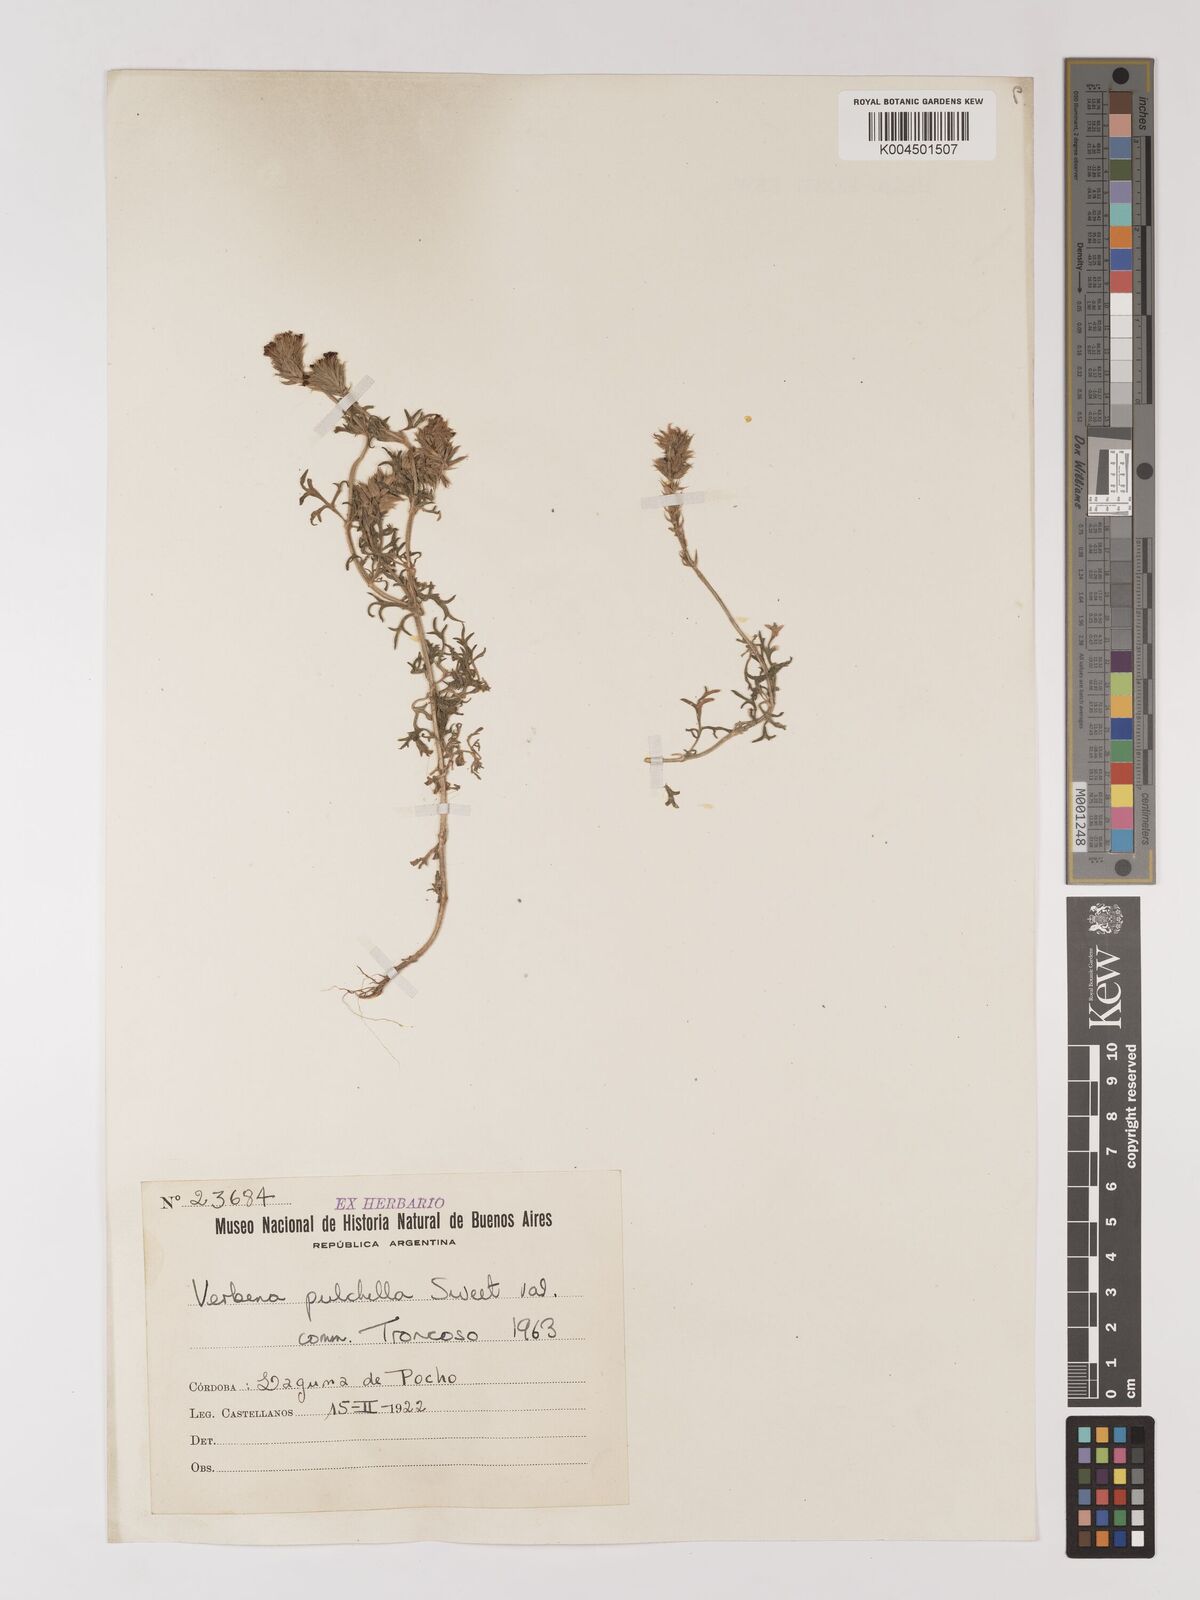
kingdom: Plantae
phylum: Tracheophyta
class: Magnoliopsida
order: Lamiales
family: Verbenaceae
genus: Verbena
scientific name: Verbena tenera
